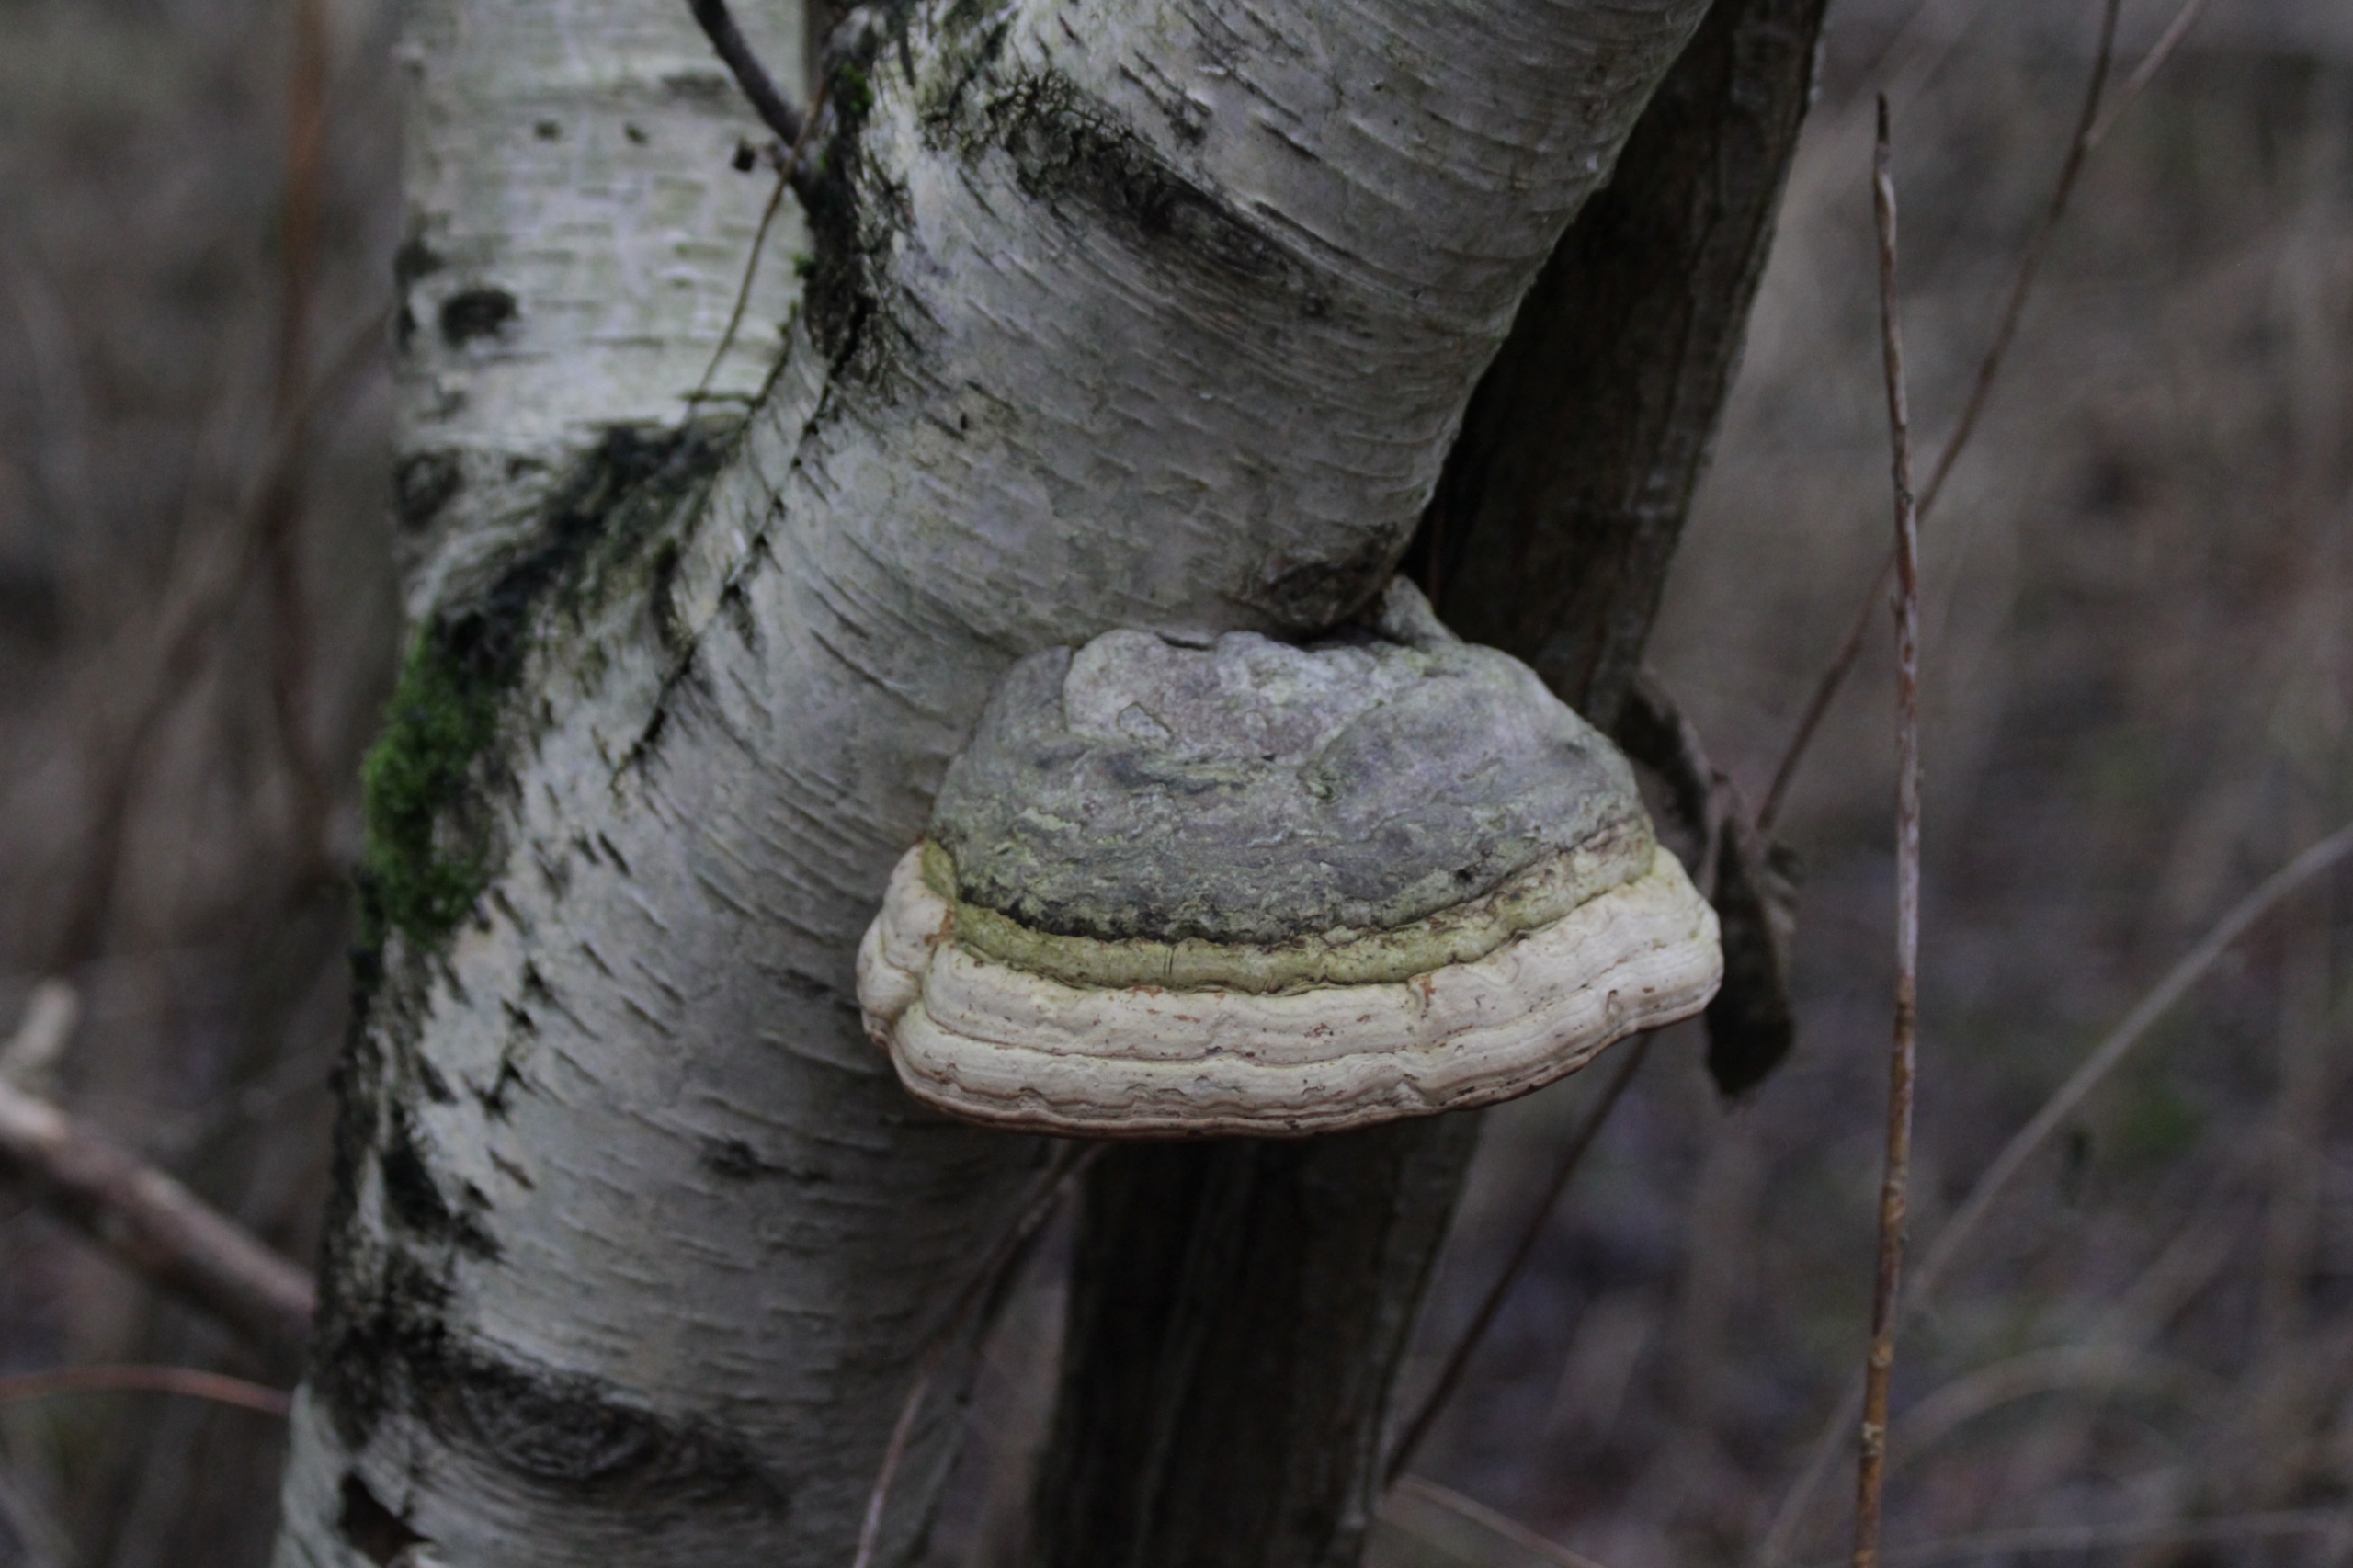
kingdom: Fungi
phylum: Basidiomycota
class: Agaricomycetes
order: Polyporales
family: Polyporaceae
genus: Fomes
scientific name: Fomes fomentarius
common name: Tøndersvamp
